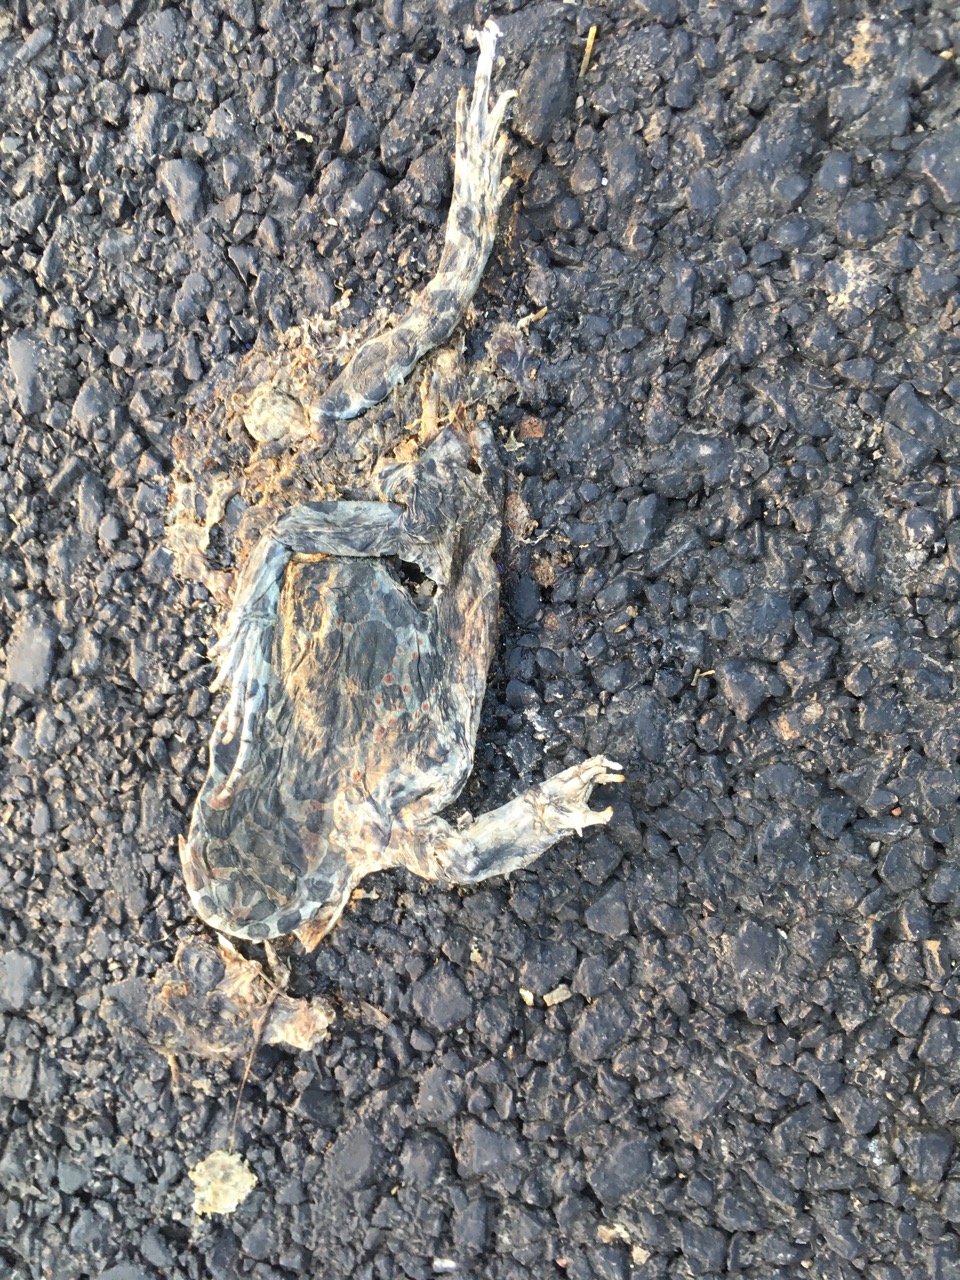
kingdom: Animalia
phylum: Chordata
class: Amphibia
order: Anura
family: Bufonidae
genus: Bufotes
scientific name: Bufotes viridis
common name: European green toad
